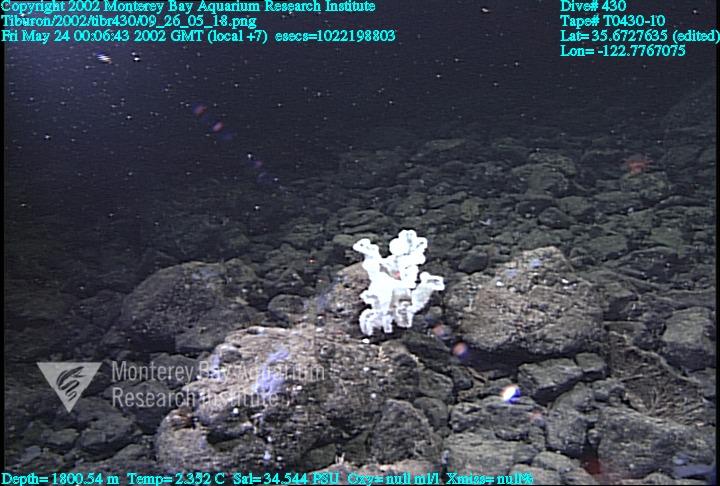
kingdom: Animalia
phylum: Porifera
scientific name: Porifera
